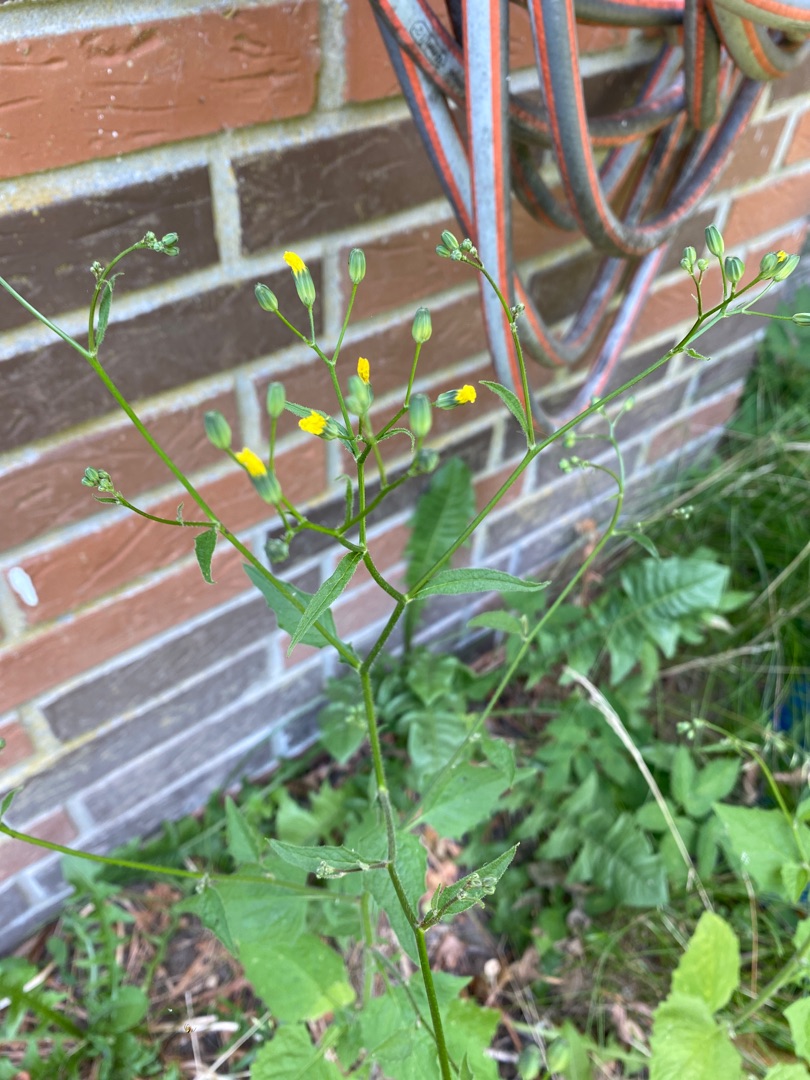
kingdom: Plantae
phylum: Tracheophyta
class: Magnoliopsida
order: Asterales
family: Asteraceae
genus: Lapsana
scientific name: Lapsana communis
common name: Haremad
